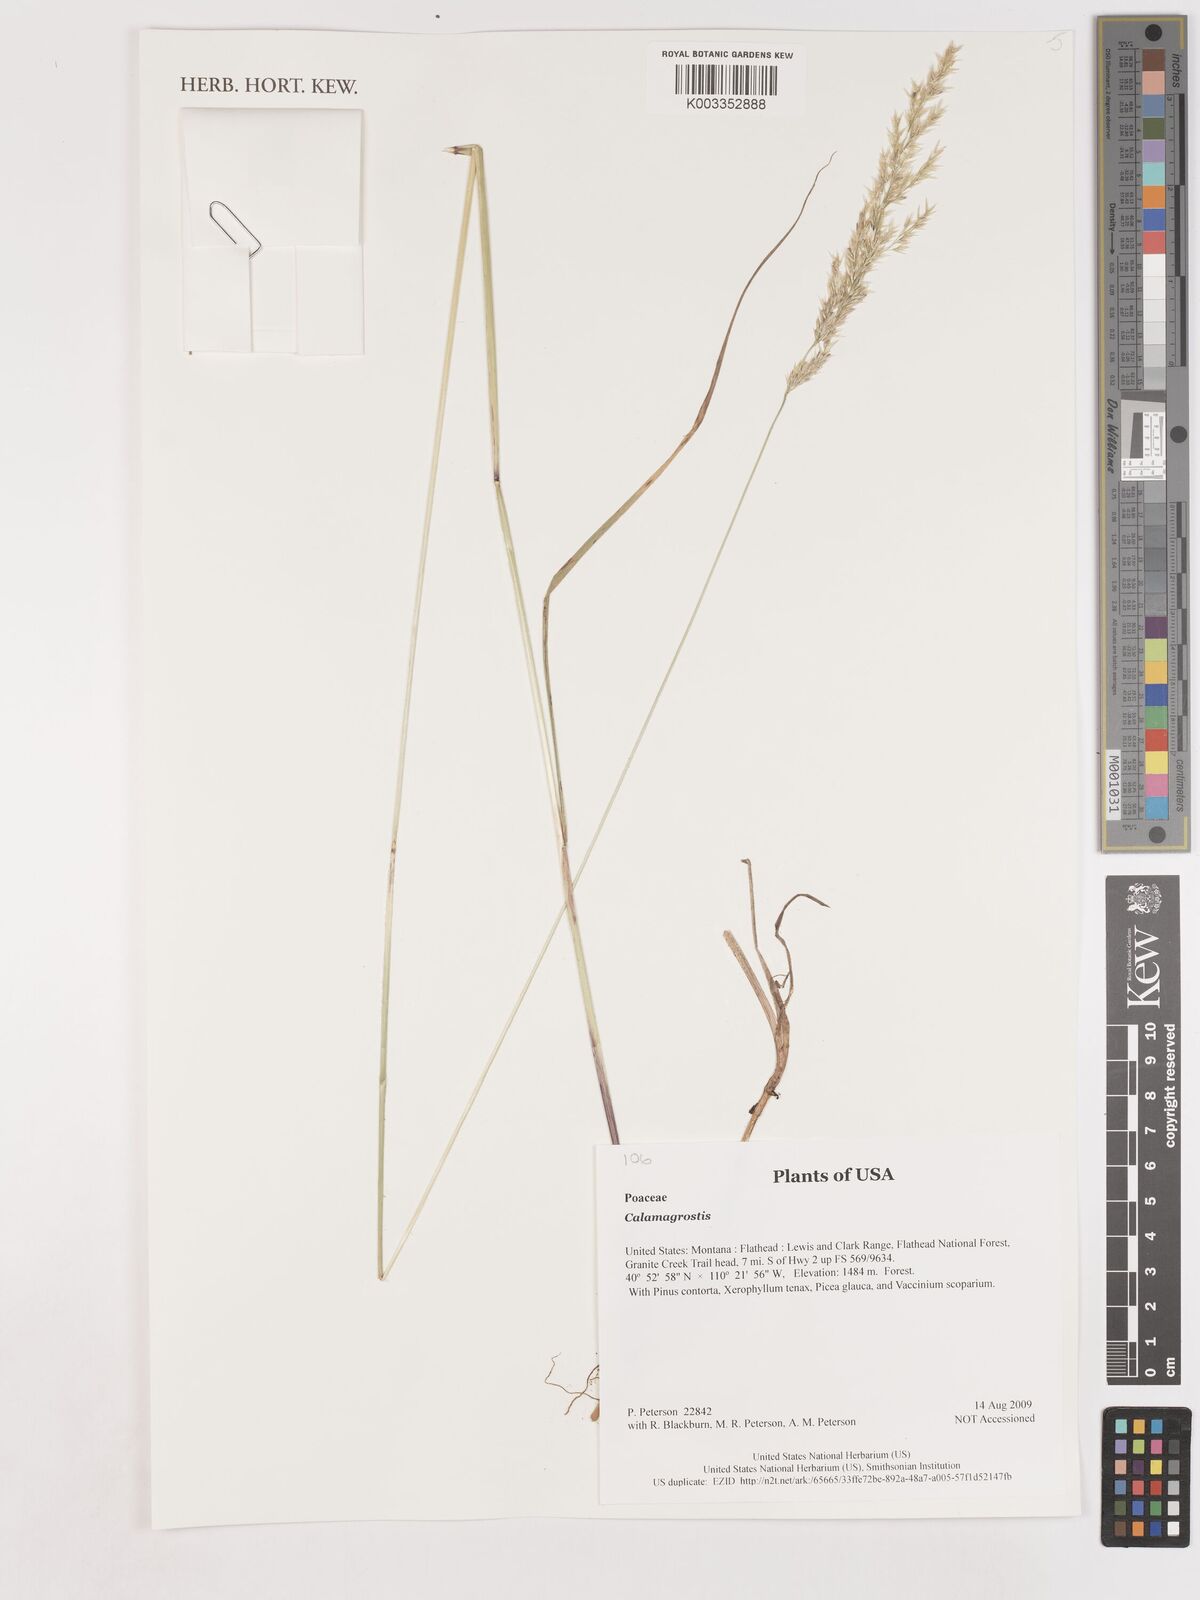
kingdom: Plantae
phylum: Tracheophyta
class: Liliopsida
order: Poales
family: Poaceae
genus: Calamagrostis
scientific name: Calamagrostis
